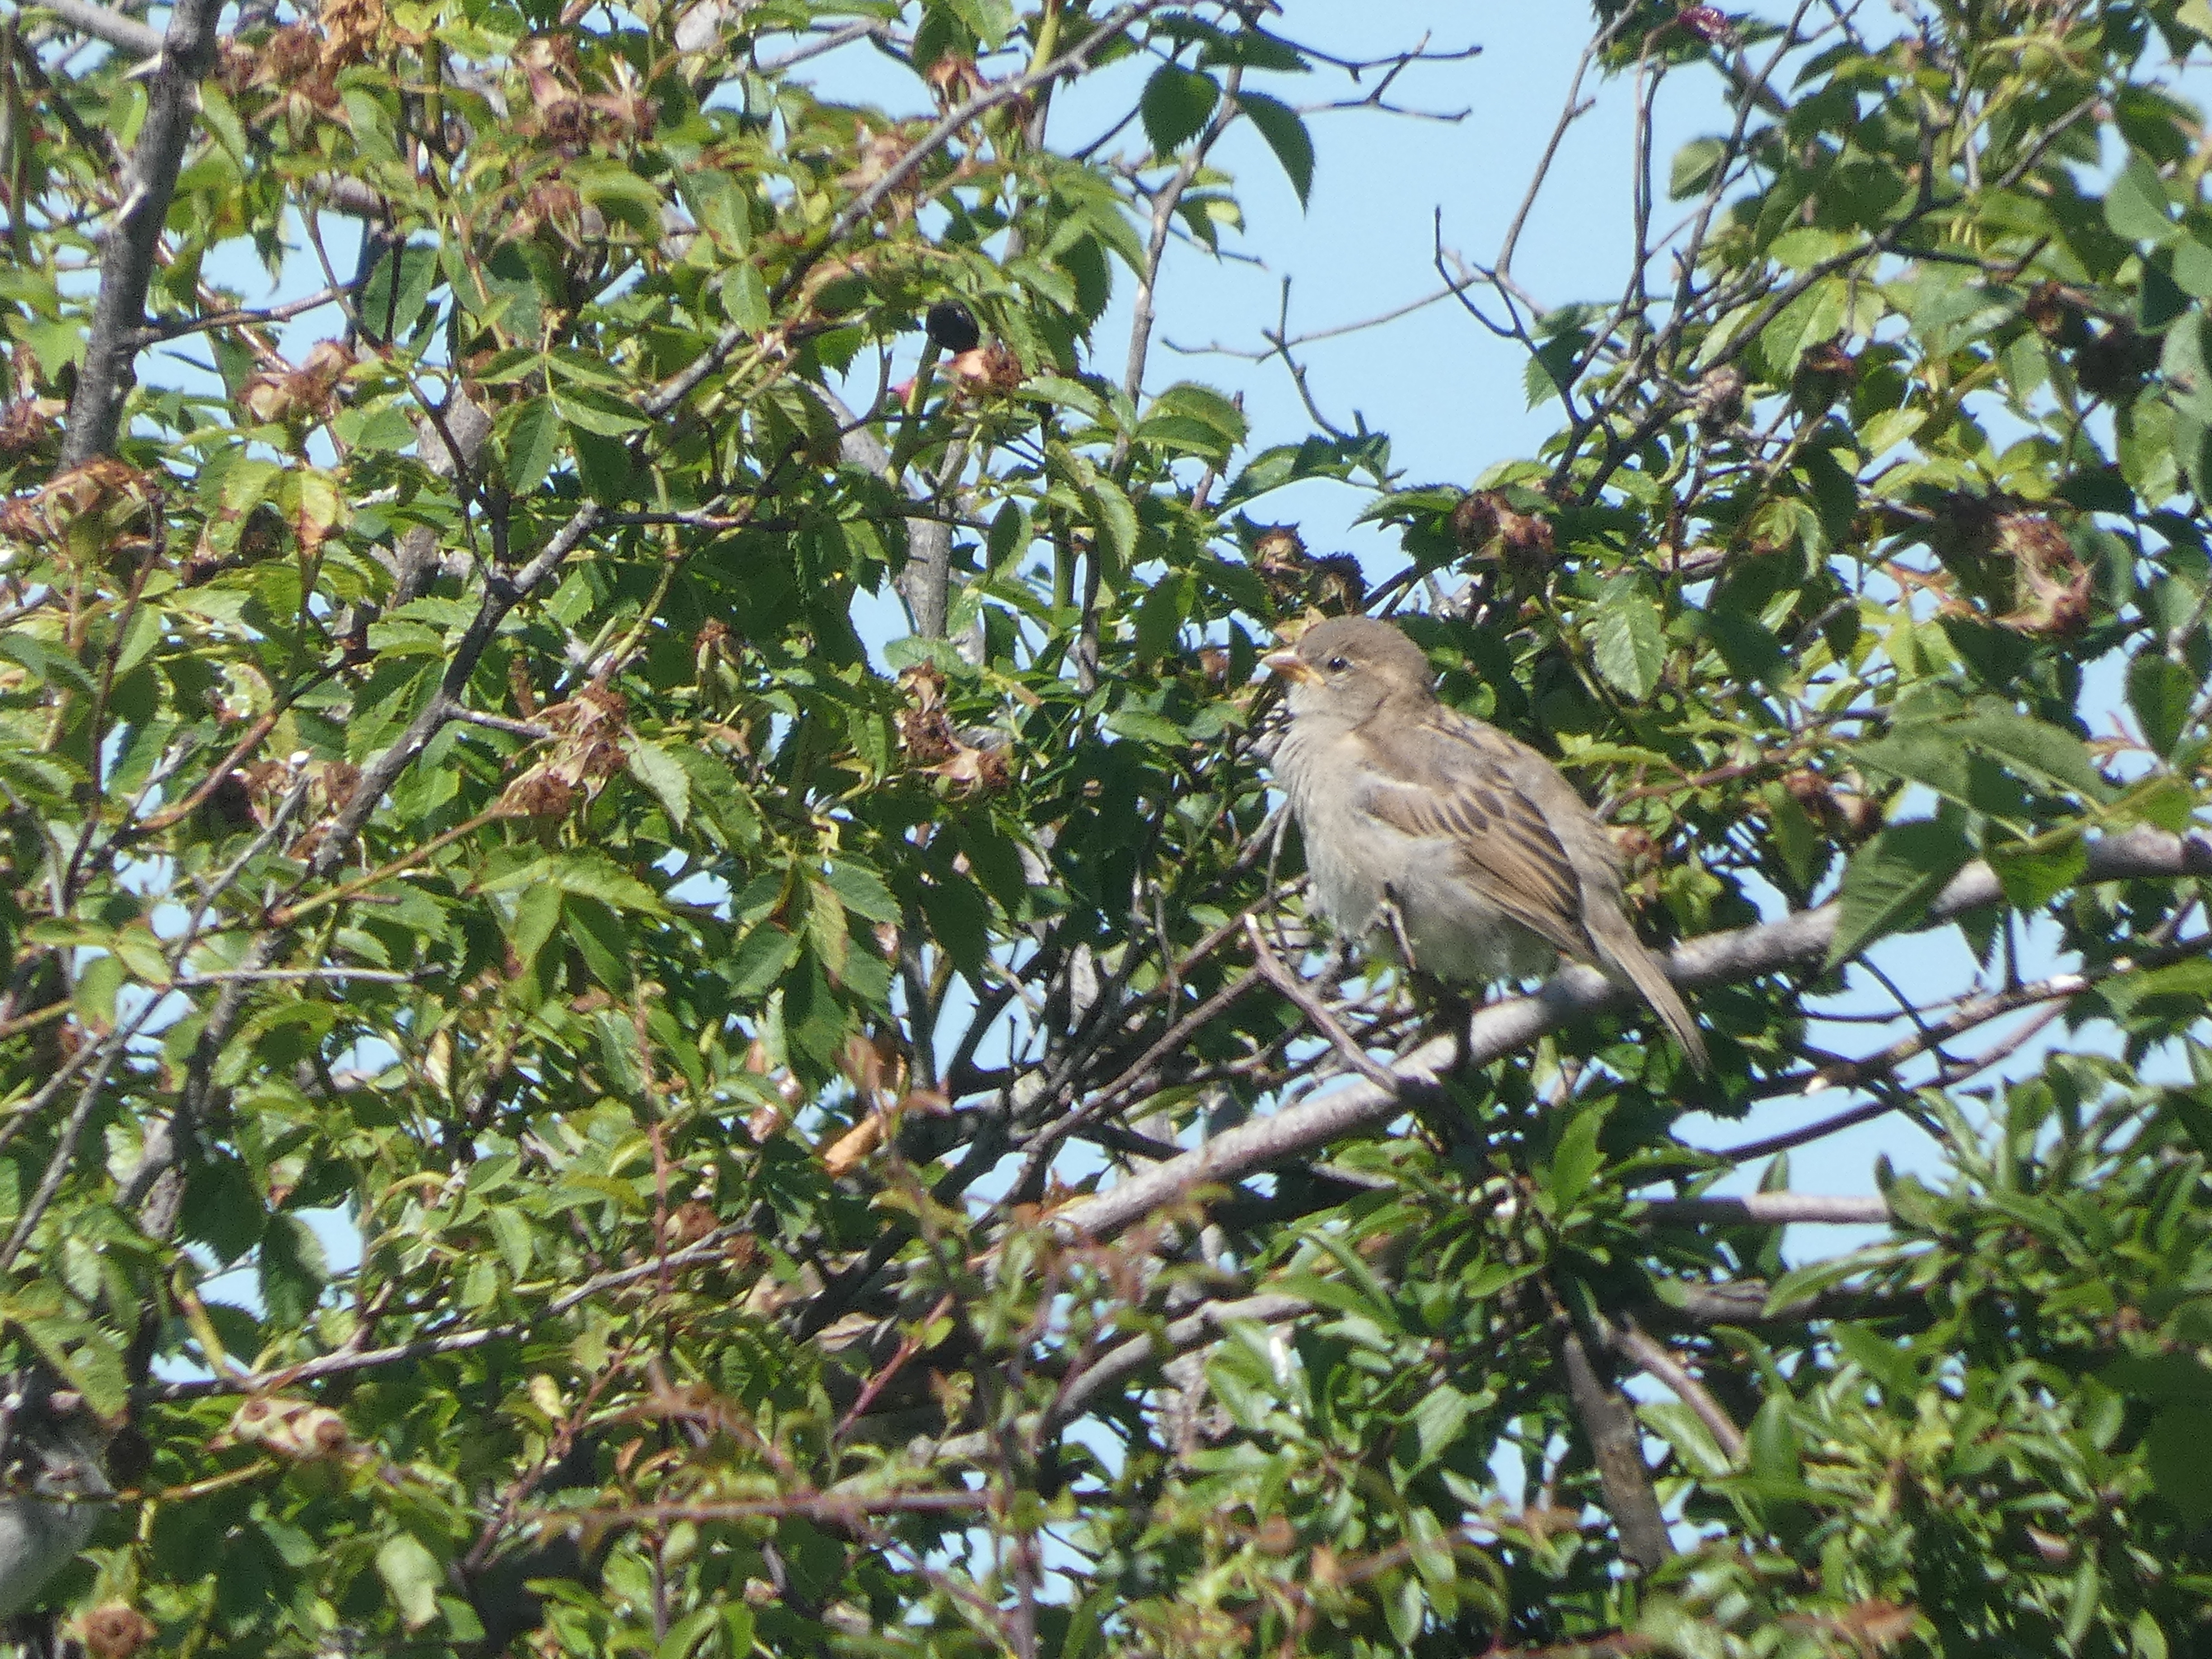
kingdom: Animalia
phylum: Chordata
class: Aves
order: Passeriformes
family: Passeridae
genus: Passer
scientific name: Passer domesticus
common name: Gråspurv
